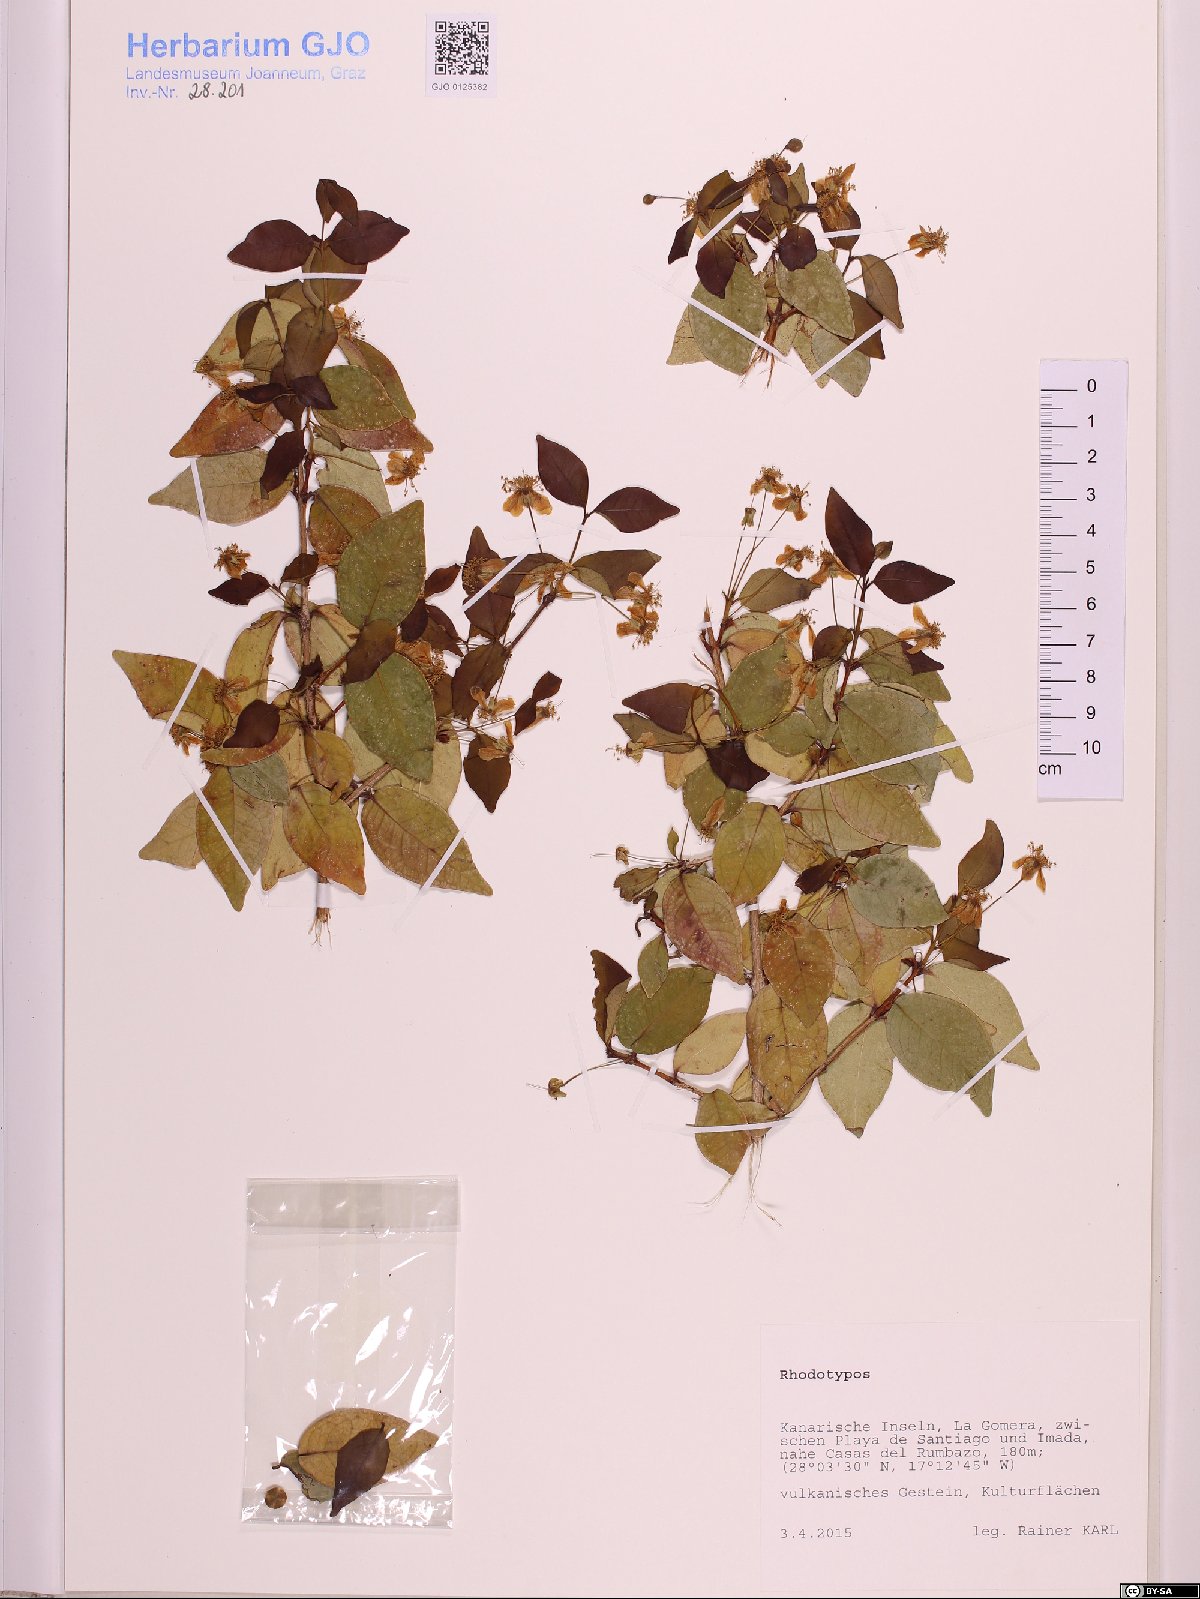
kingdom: Plantae
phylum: Tracheophyta
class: Magnoliopsida
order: Rosales
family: Rosaceae
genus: Rhodotypos
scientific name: Rhodotypos
